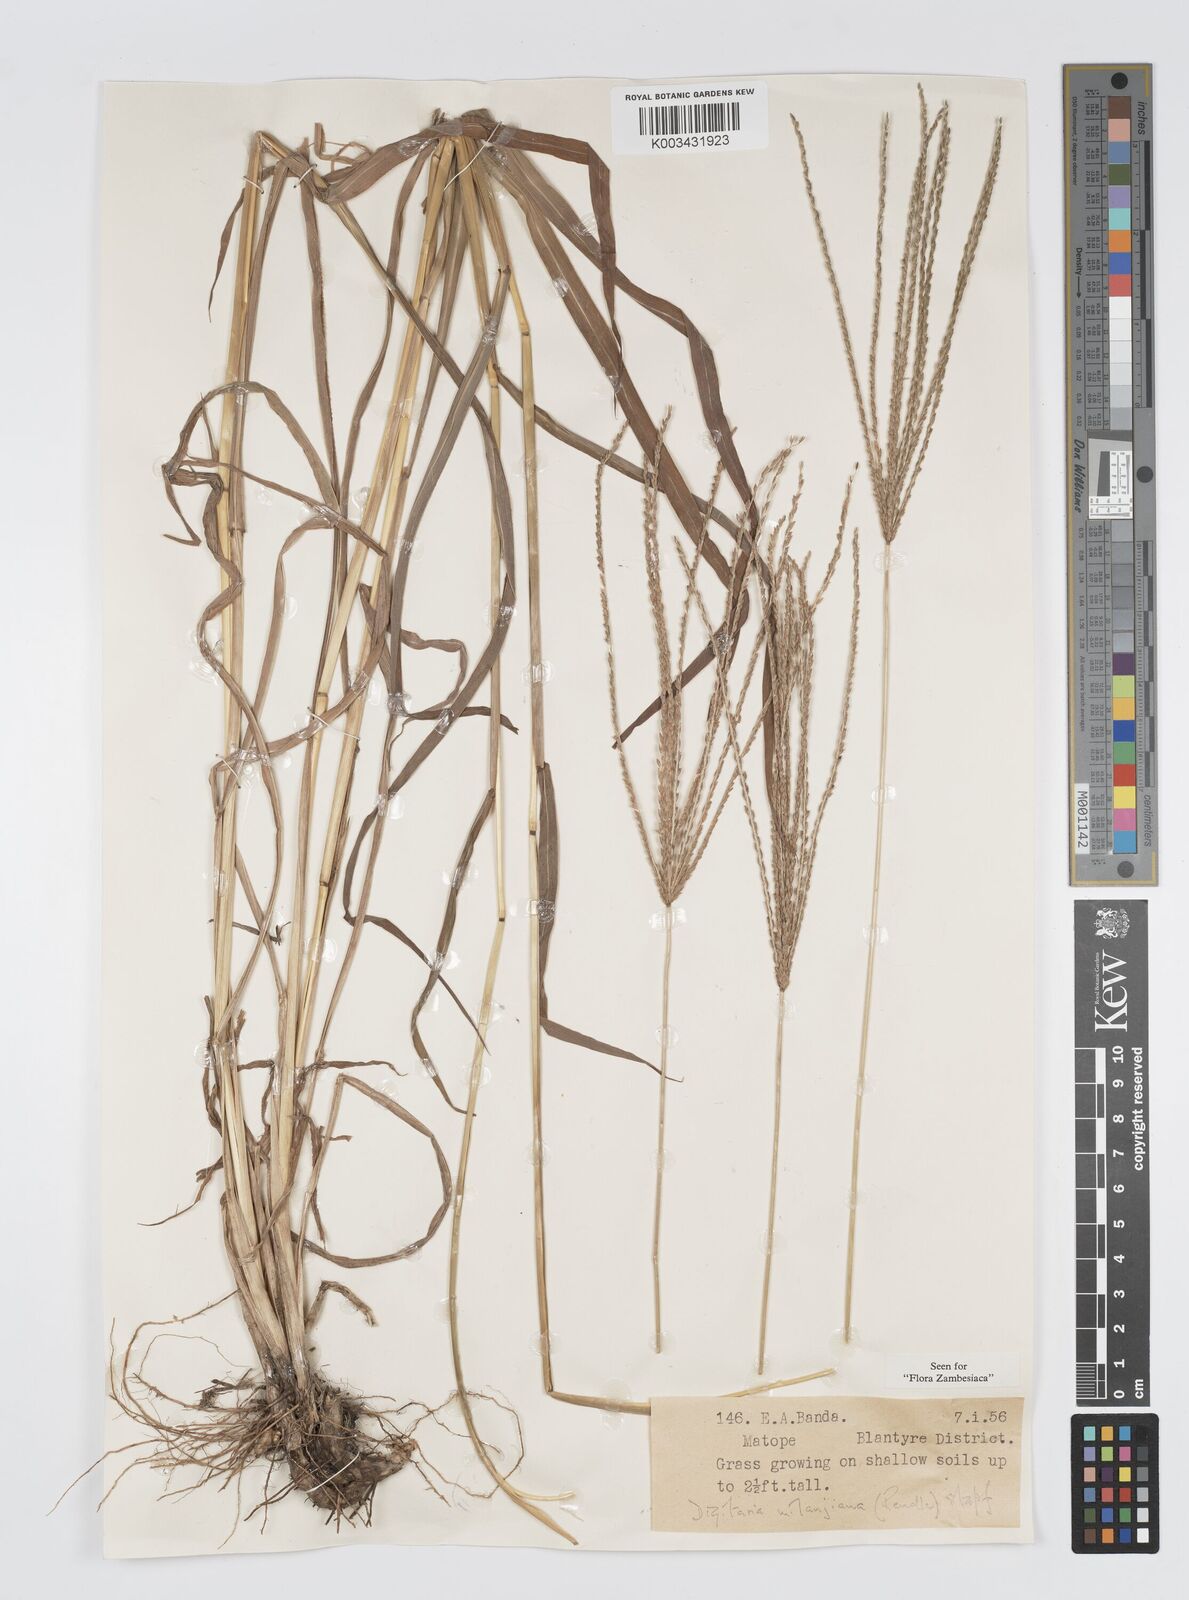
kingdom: Plantae
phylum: Tracheophyta
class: Liliopsida
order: Poales
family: Poaceae
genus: Digitaria
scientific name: Digitaria milanjiana
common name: Madagascar crabgrass
